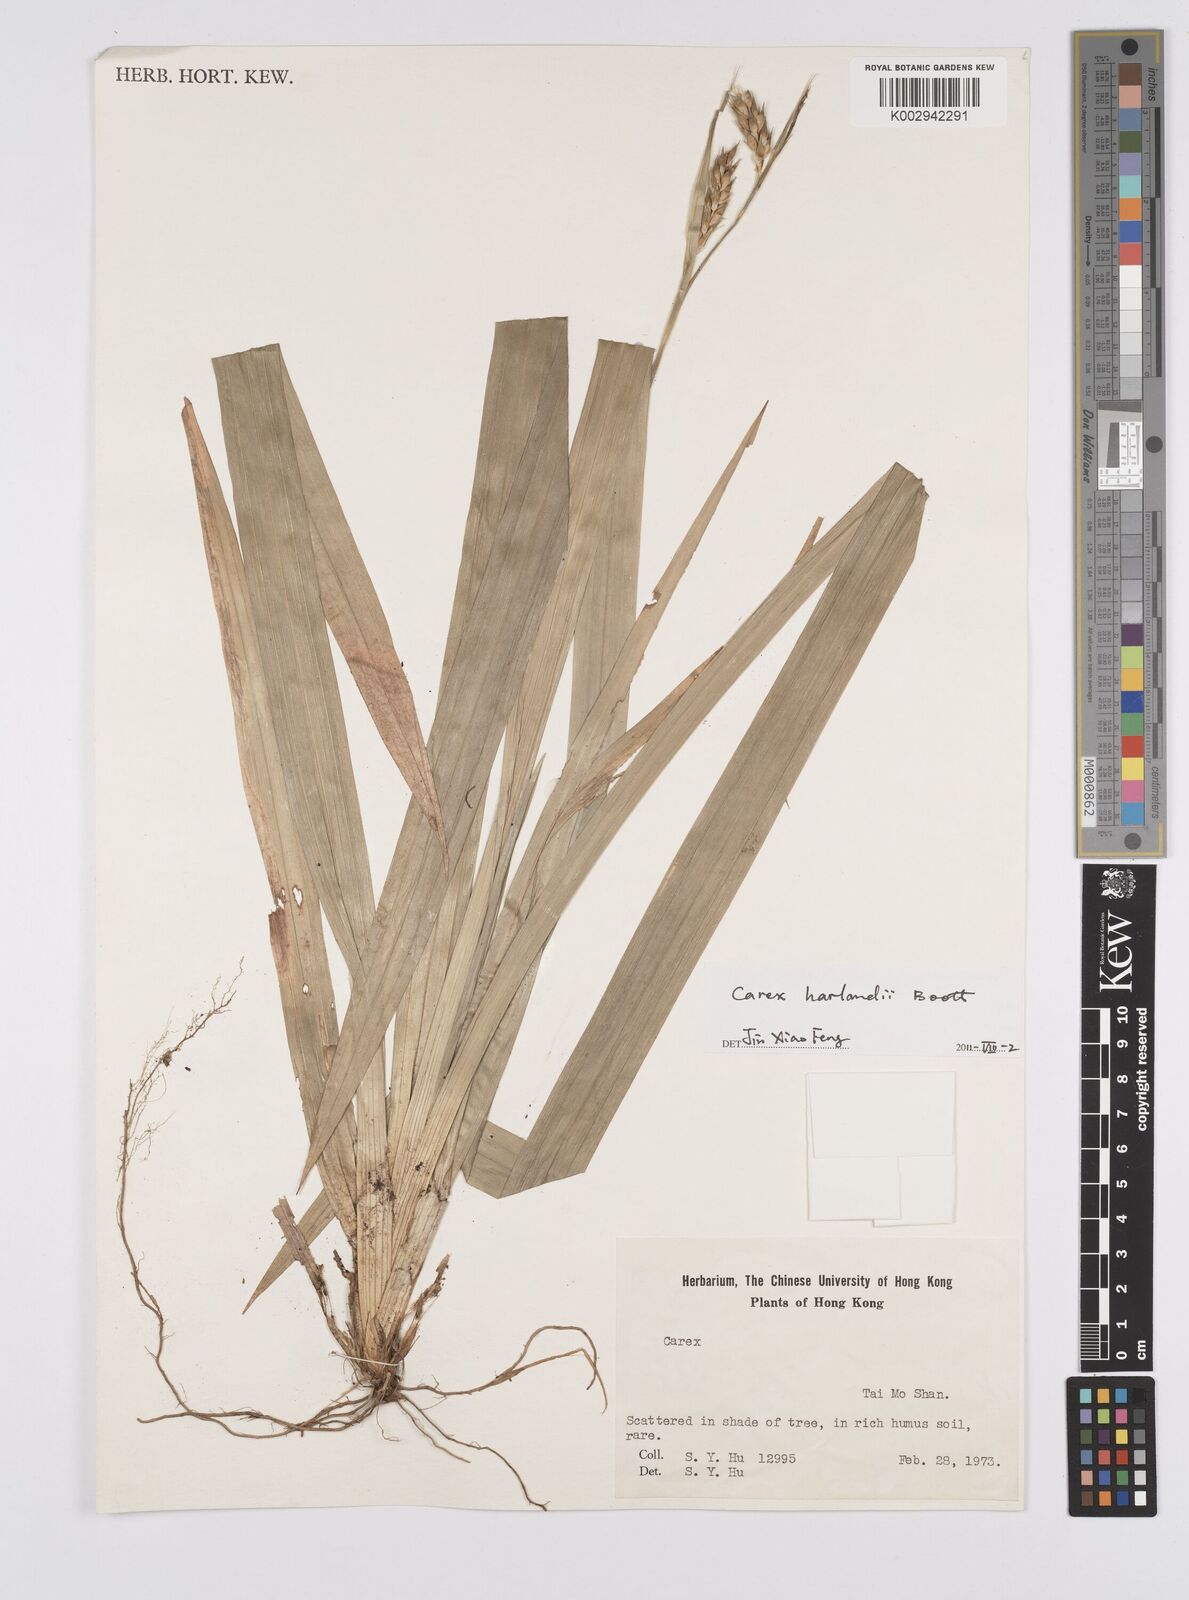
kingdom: Plantae
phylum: Tracheophyta
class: Liliopsida
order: Poales
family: Cyperaceae
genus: Carex
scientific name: Carex harlandii
